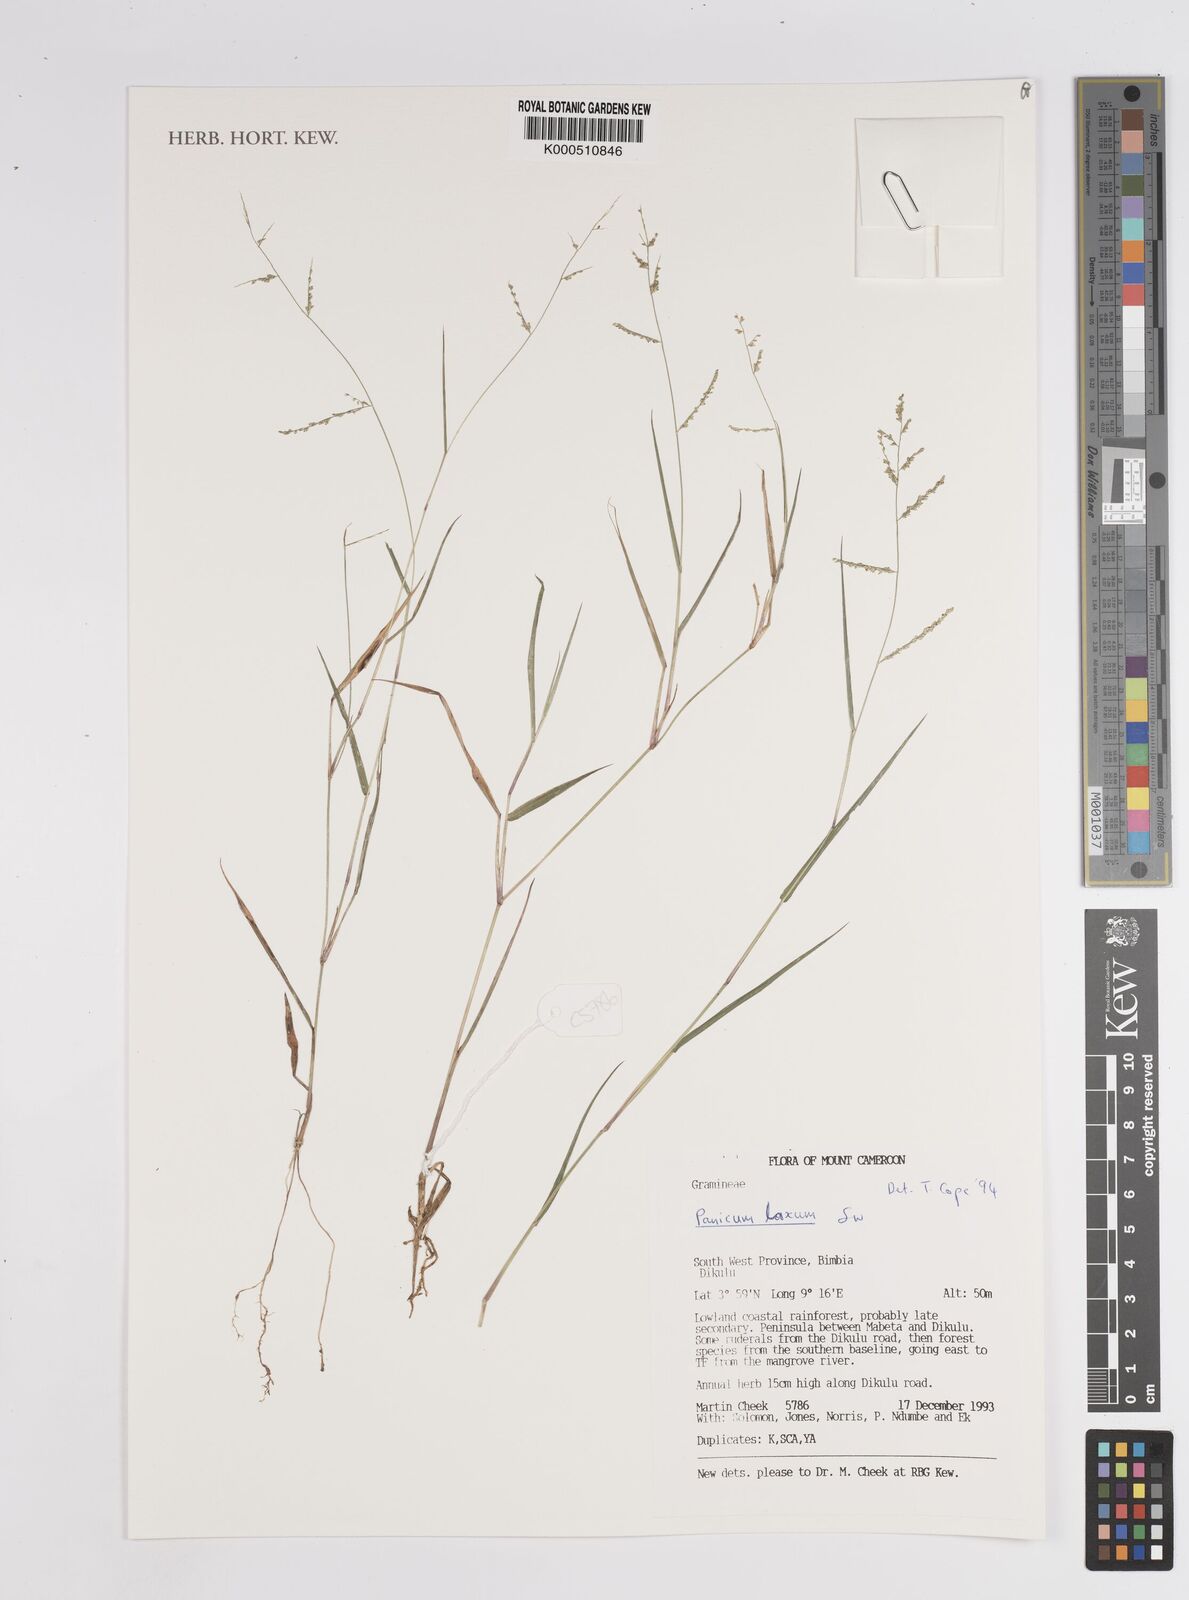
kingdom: Plantae
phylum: Tracheophyta
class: Liliopsida
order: Poales
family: Poaceae
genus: Steinchisma
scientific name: Steinchisma laxum
